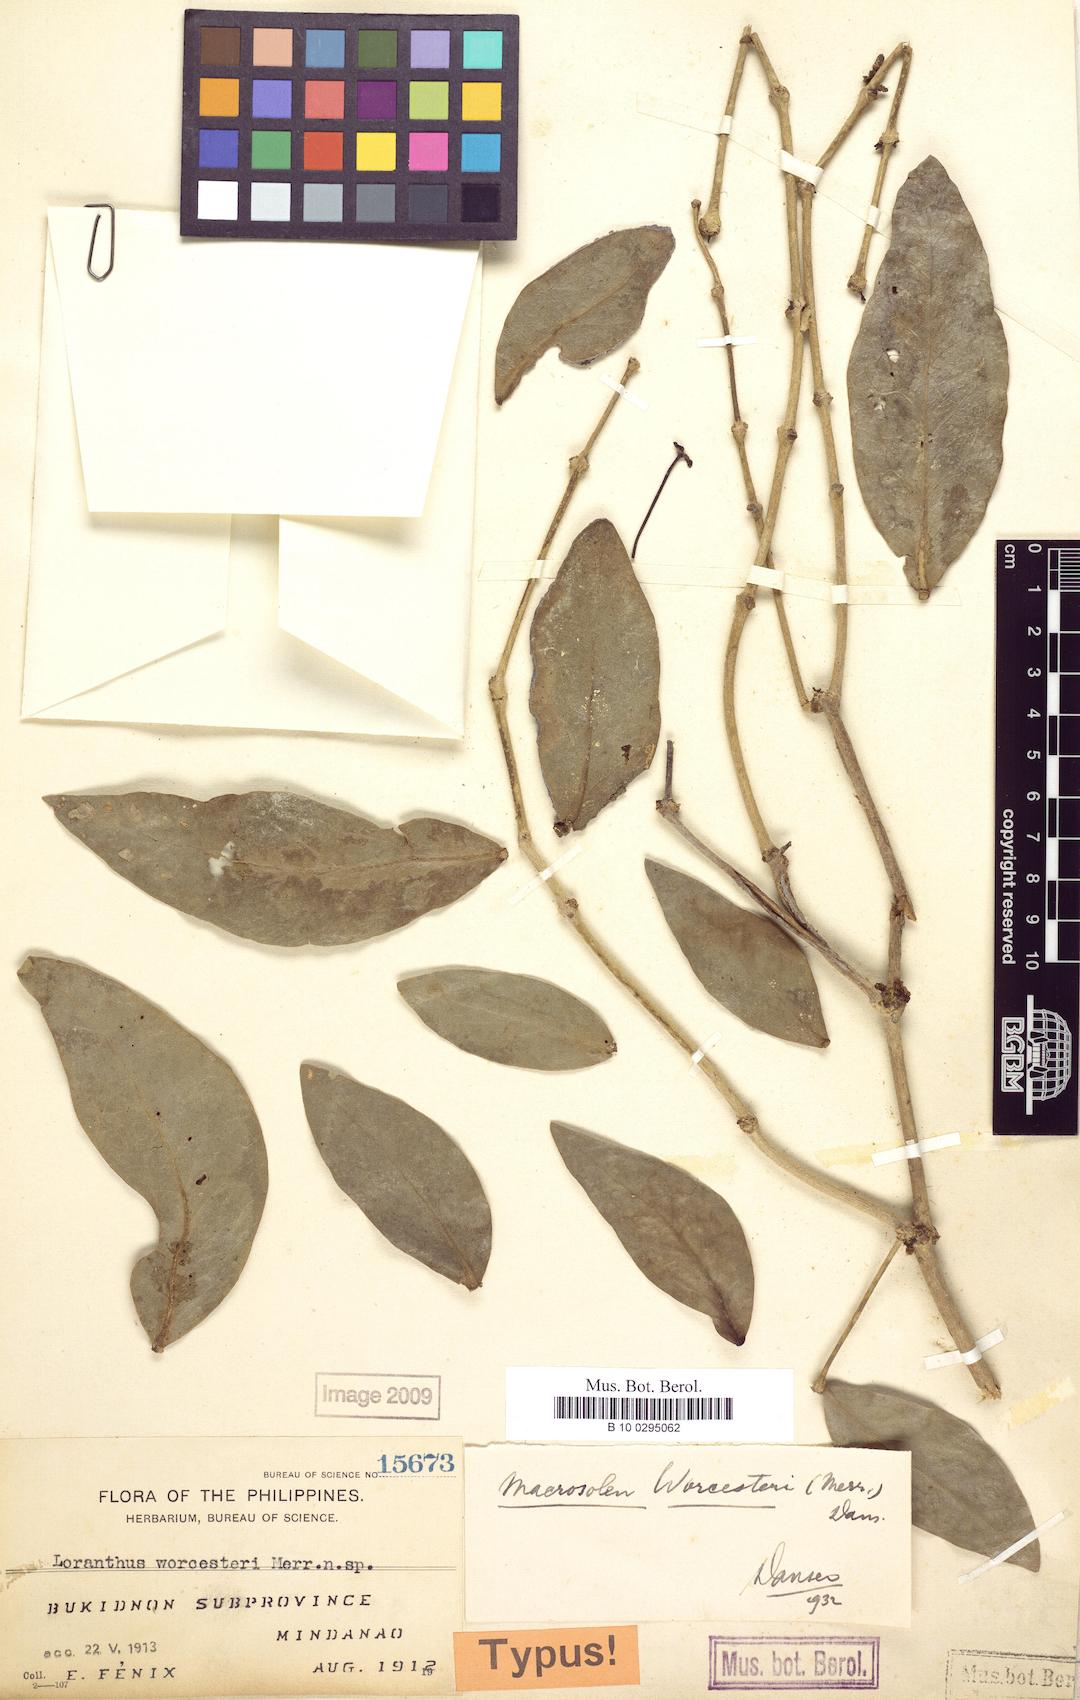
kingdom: Plantae
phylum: Tracheophyta
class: Magnoliopsida
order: Santalales
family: Loranthaceae
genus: Macrosolen
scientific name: Macrosolen geminatus
